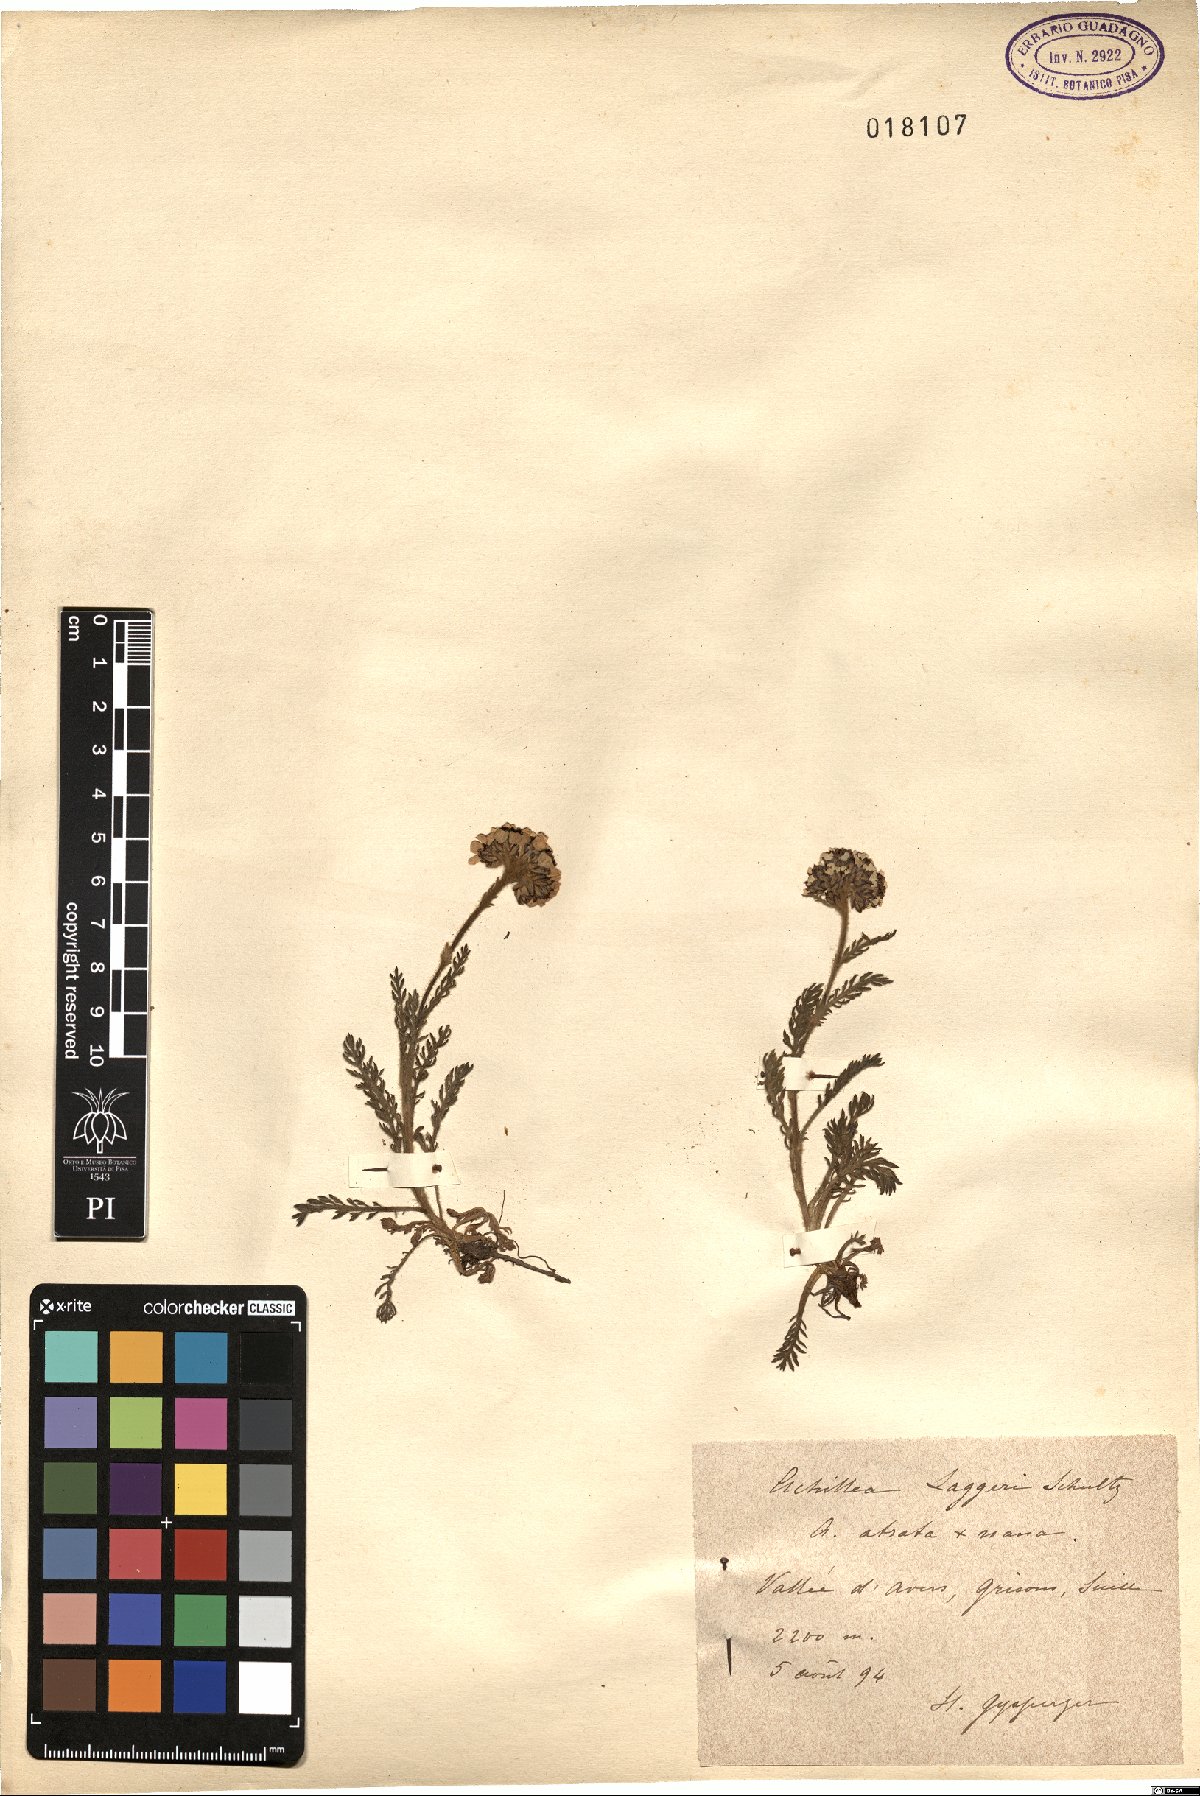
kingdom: Plantae
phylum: Tracheophyta
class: Magnoliopsida
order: Asterales
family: Asteraceae
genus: Achillea
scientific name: Achillea laggeri
